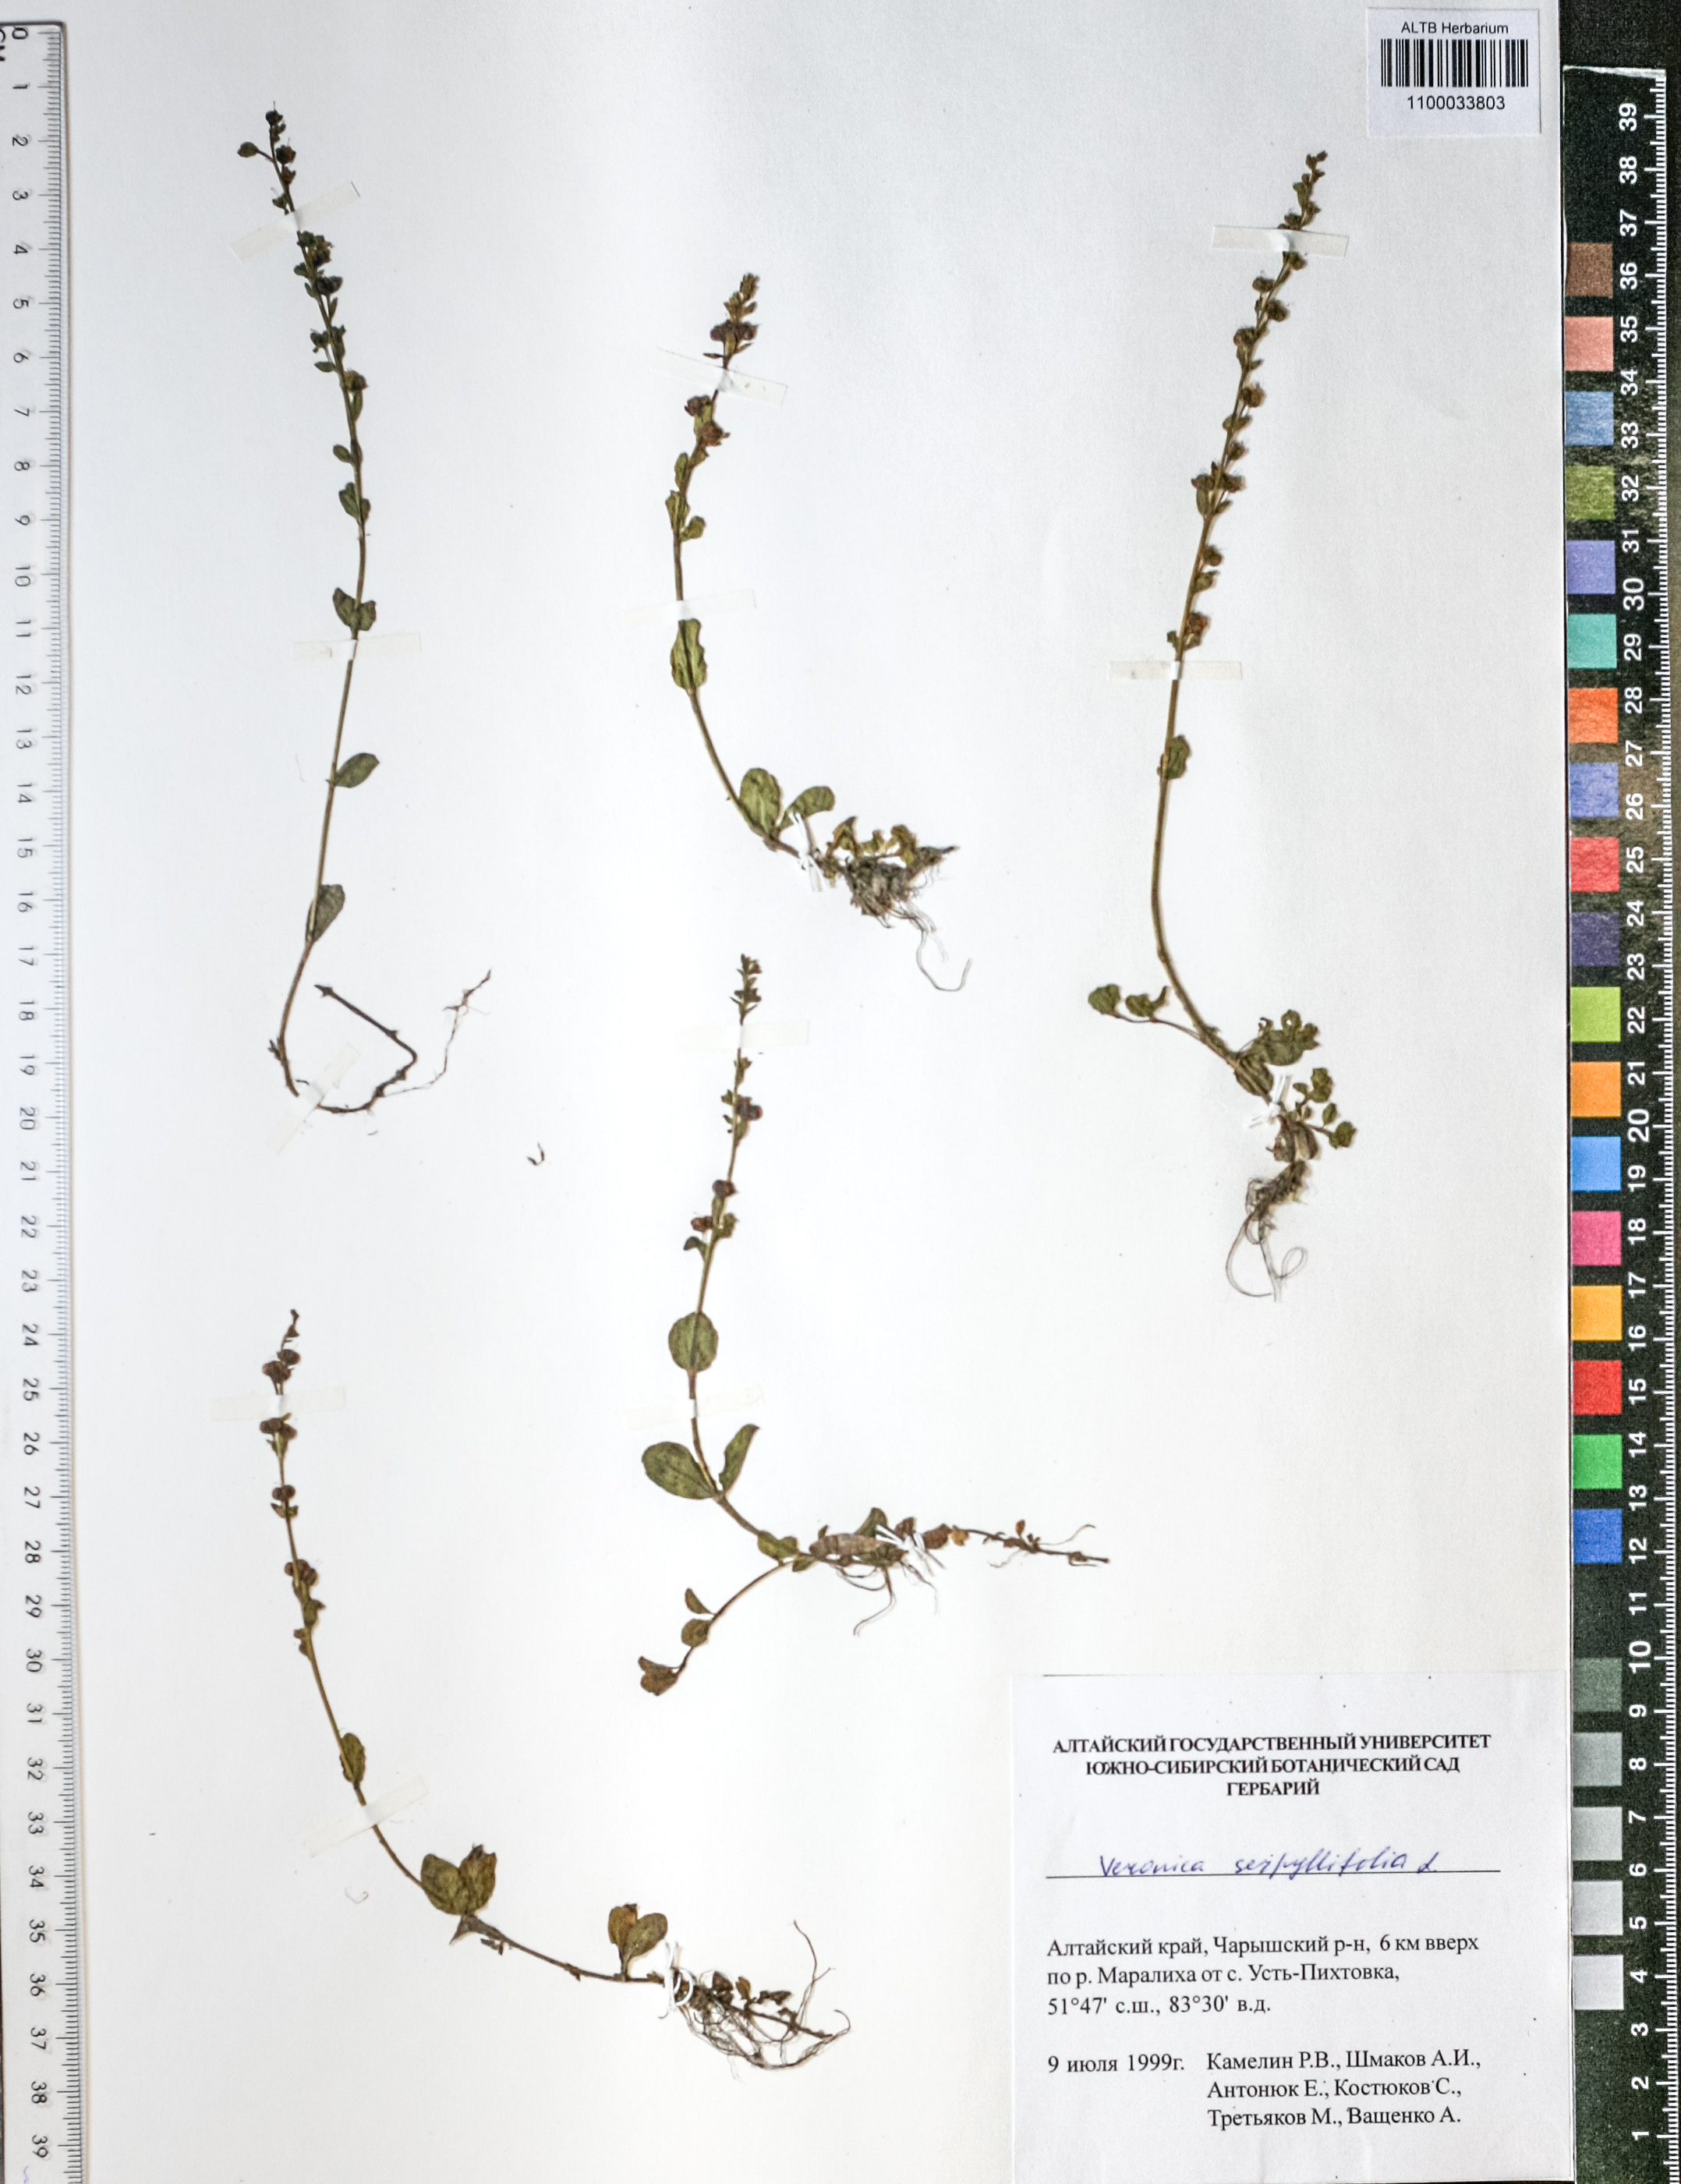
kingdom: Plantae
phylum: Tracheophyta
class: Magnoliopsida
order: Lamiales
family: Plantaginaceae
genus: Veronica
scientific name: Veronica serpyllifolia
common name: Thyme-leaved speedwell
